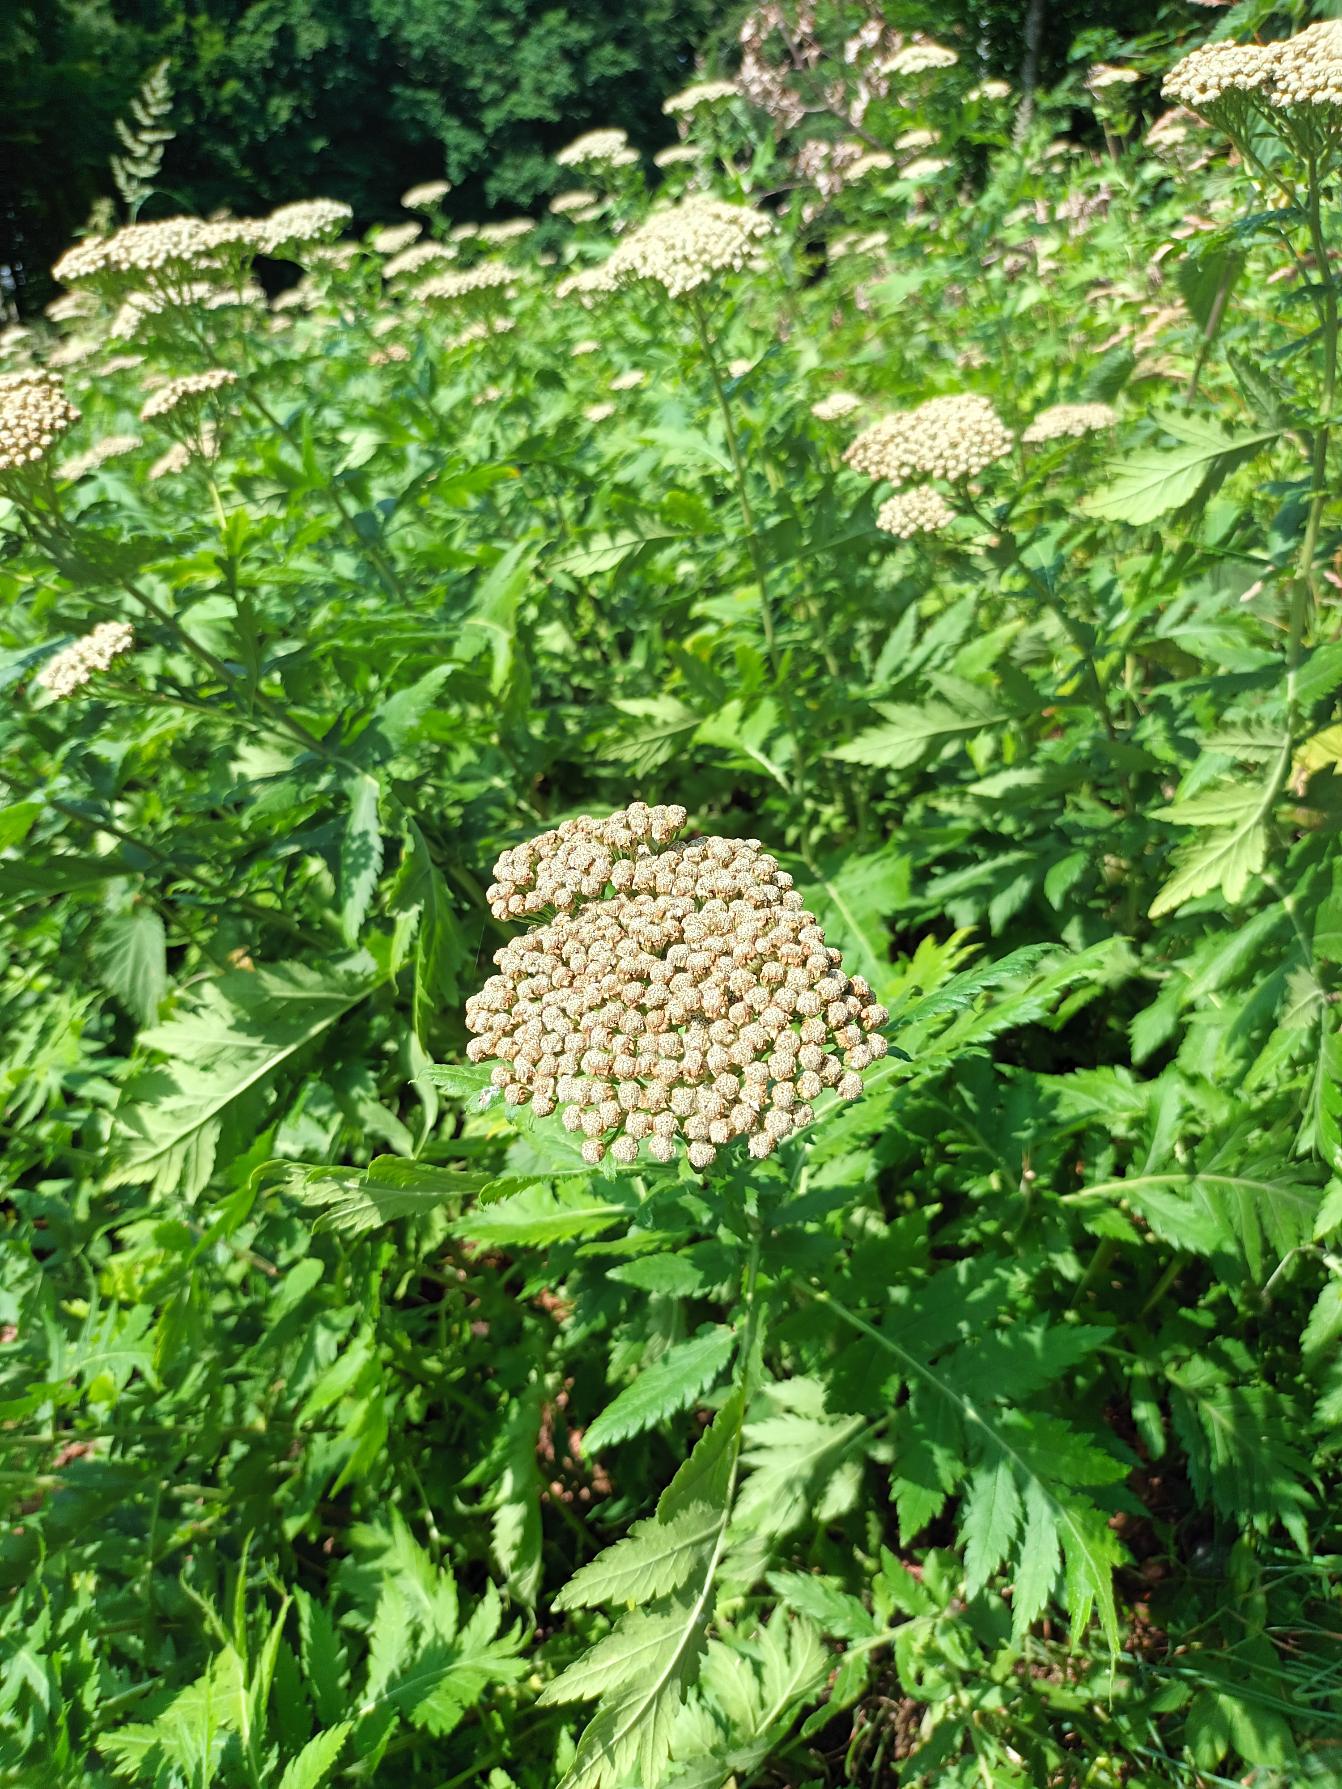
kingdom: Plantae
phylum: Tracheophyta
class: Magnoliopsida
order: Asterales
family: Asteraceae
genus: Tanacetum
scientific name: Tanacetum macrophyllum
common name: Røllike-matrem
